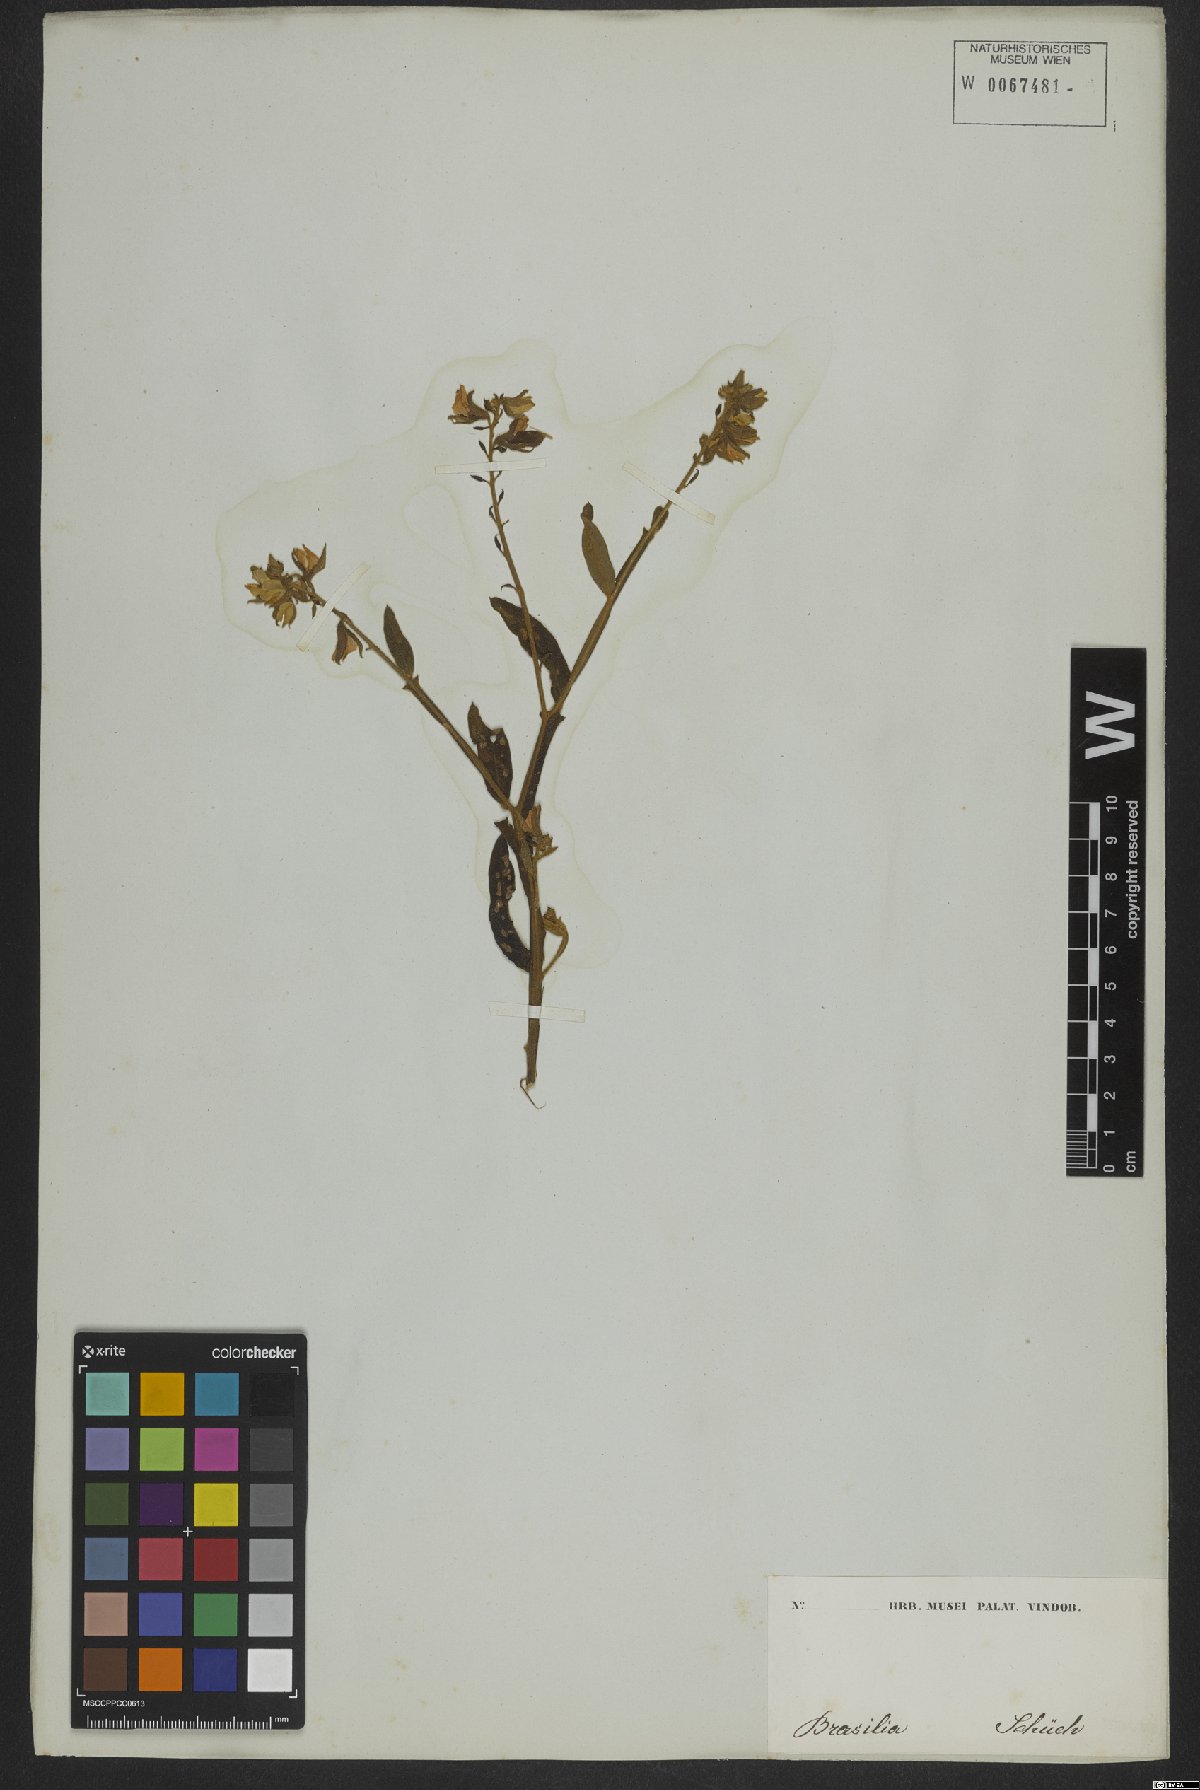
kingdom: Plantae
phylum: Tracheophyta
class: Magnoliopsida
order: Fabales
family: Fabaceae
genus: Crotalaria
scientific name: Crotalaria stipularia
